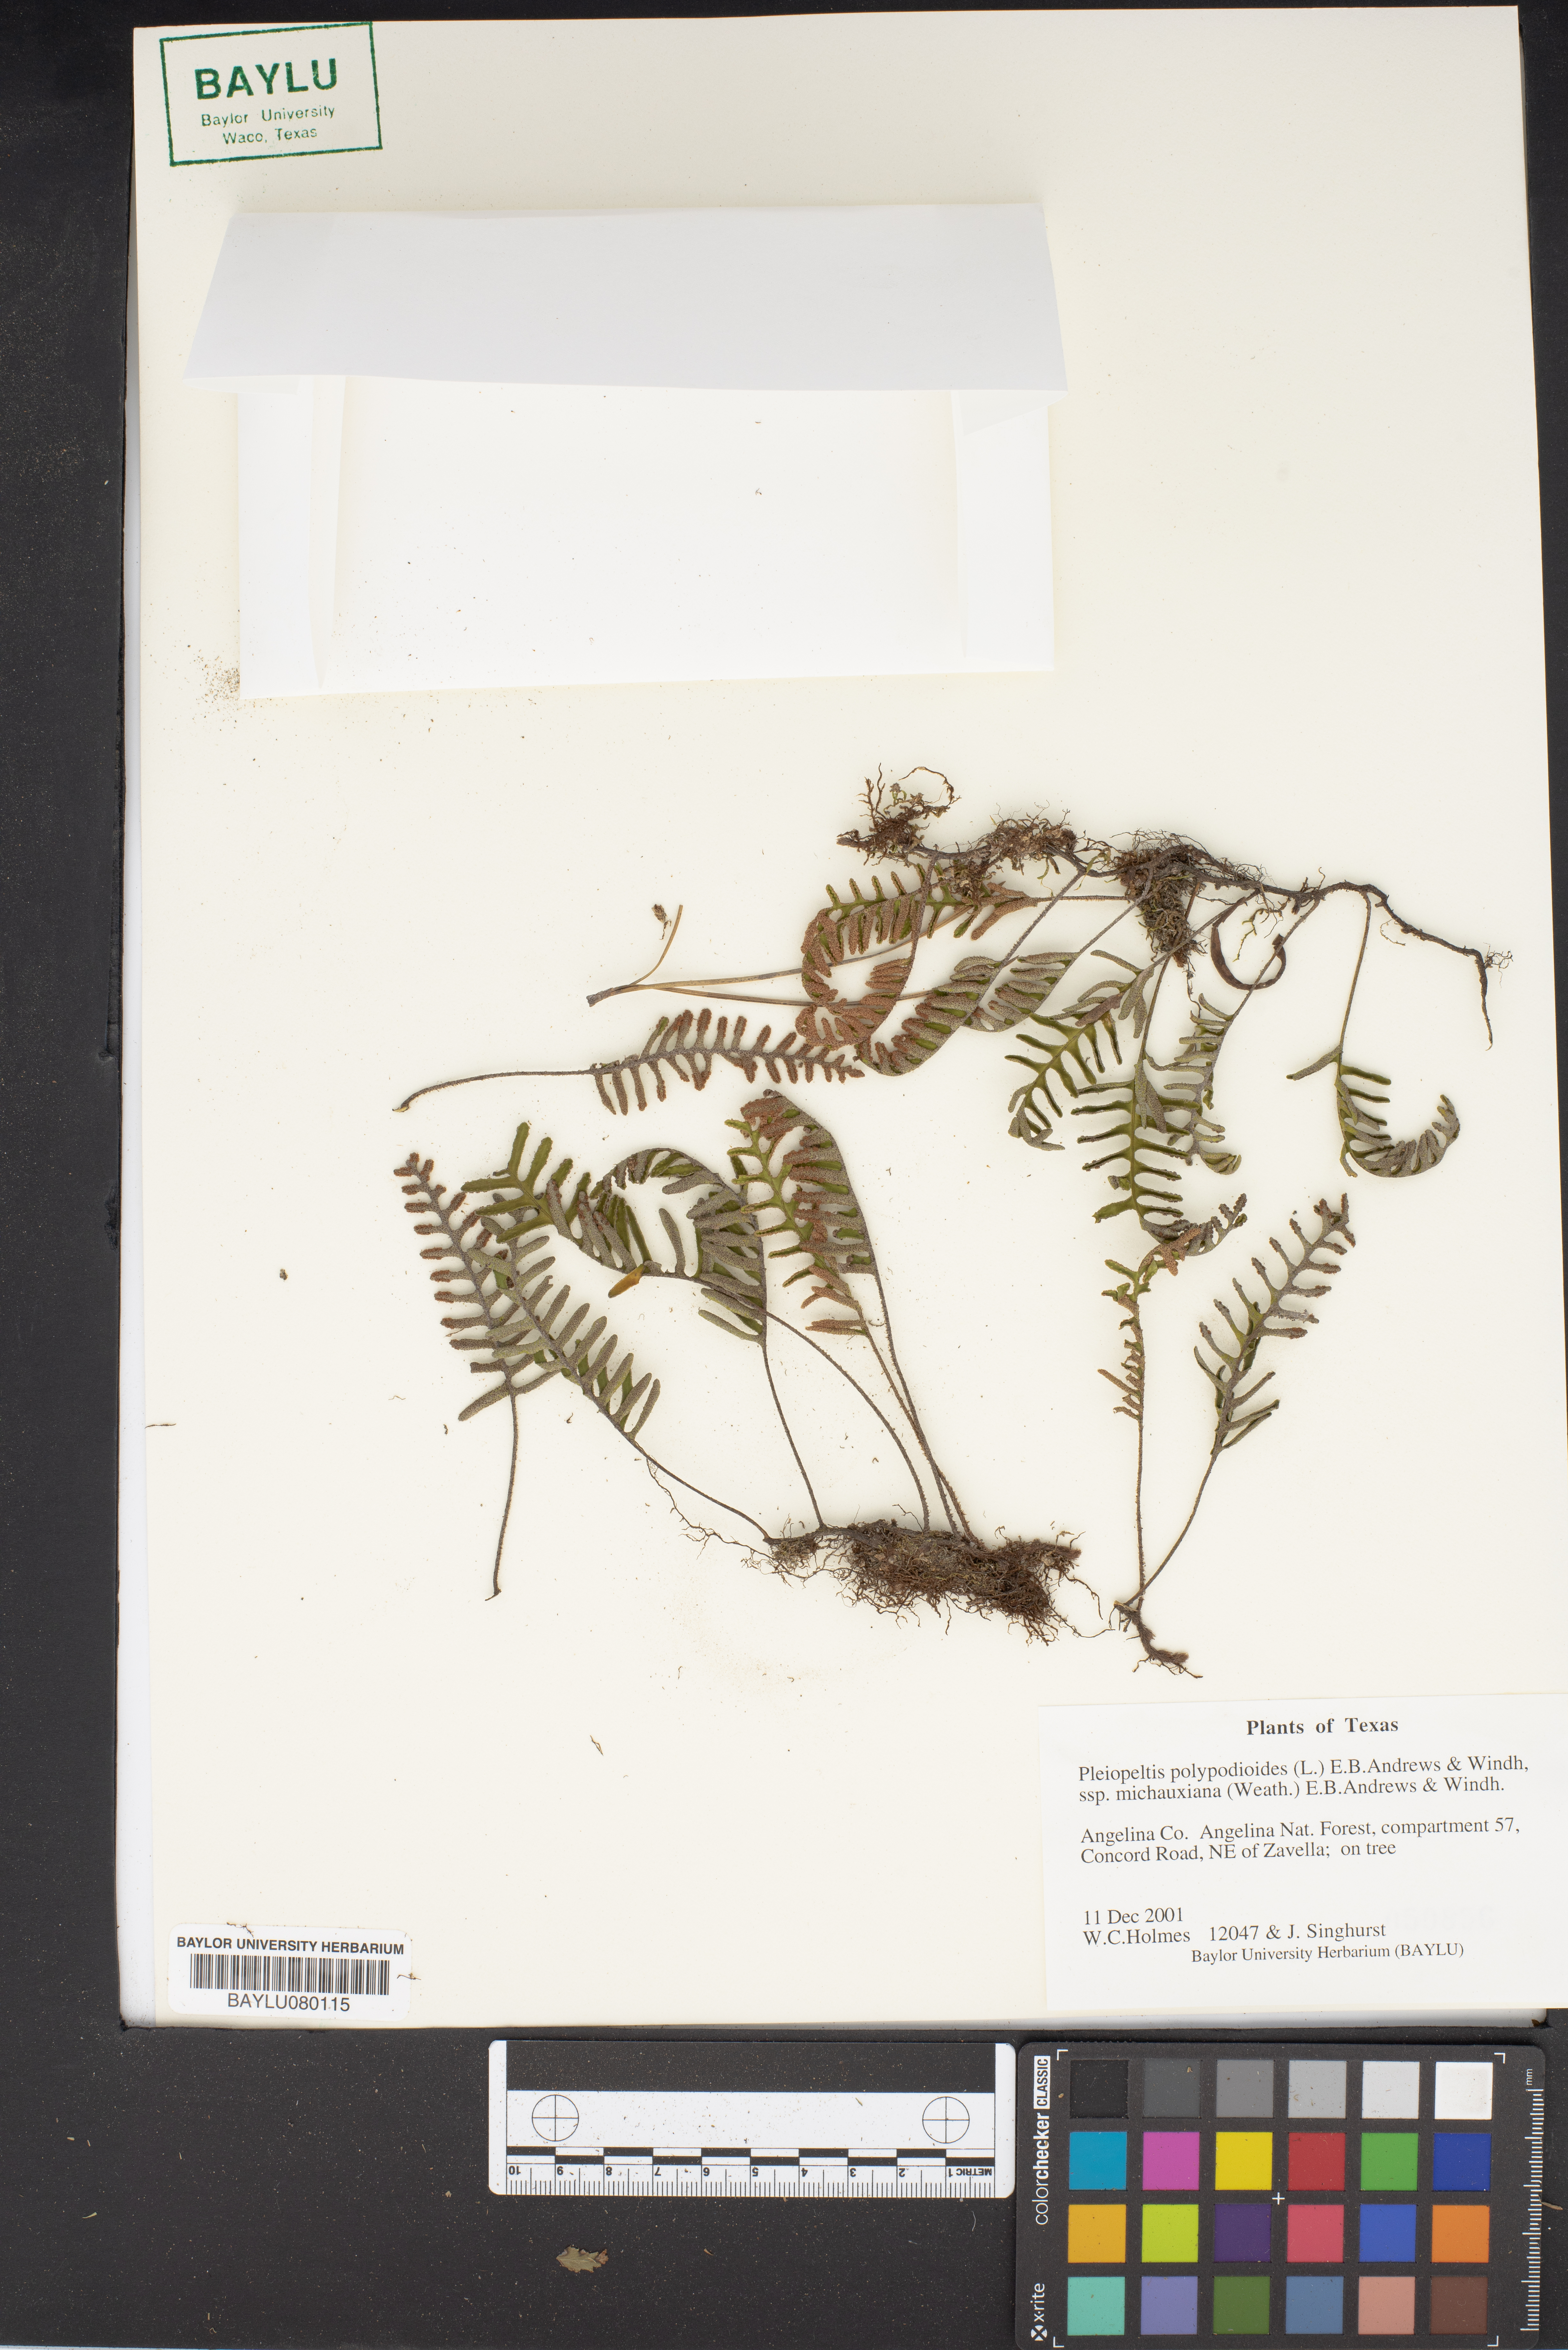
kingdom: Plantae
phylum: Tracheophyta
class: Polypodiopsida
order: Polypodiales
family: Polypodiaceae
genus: Pleopeltis
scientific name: Pleopeltis polypodioides
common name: Resurrection fern
